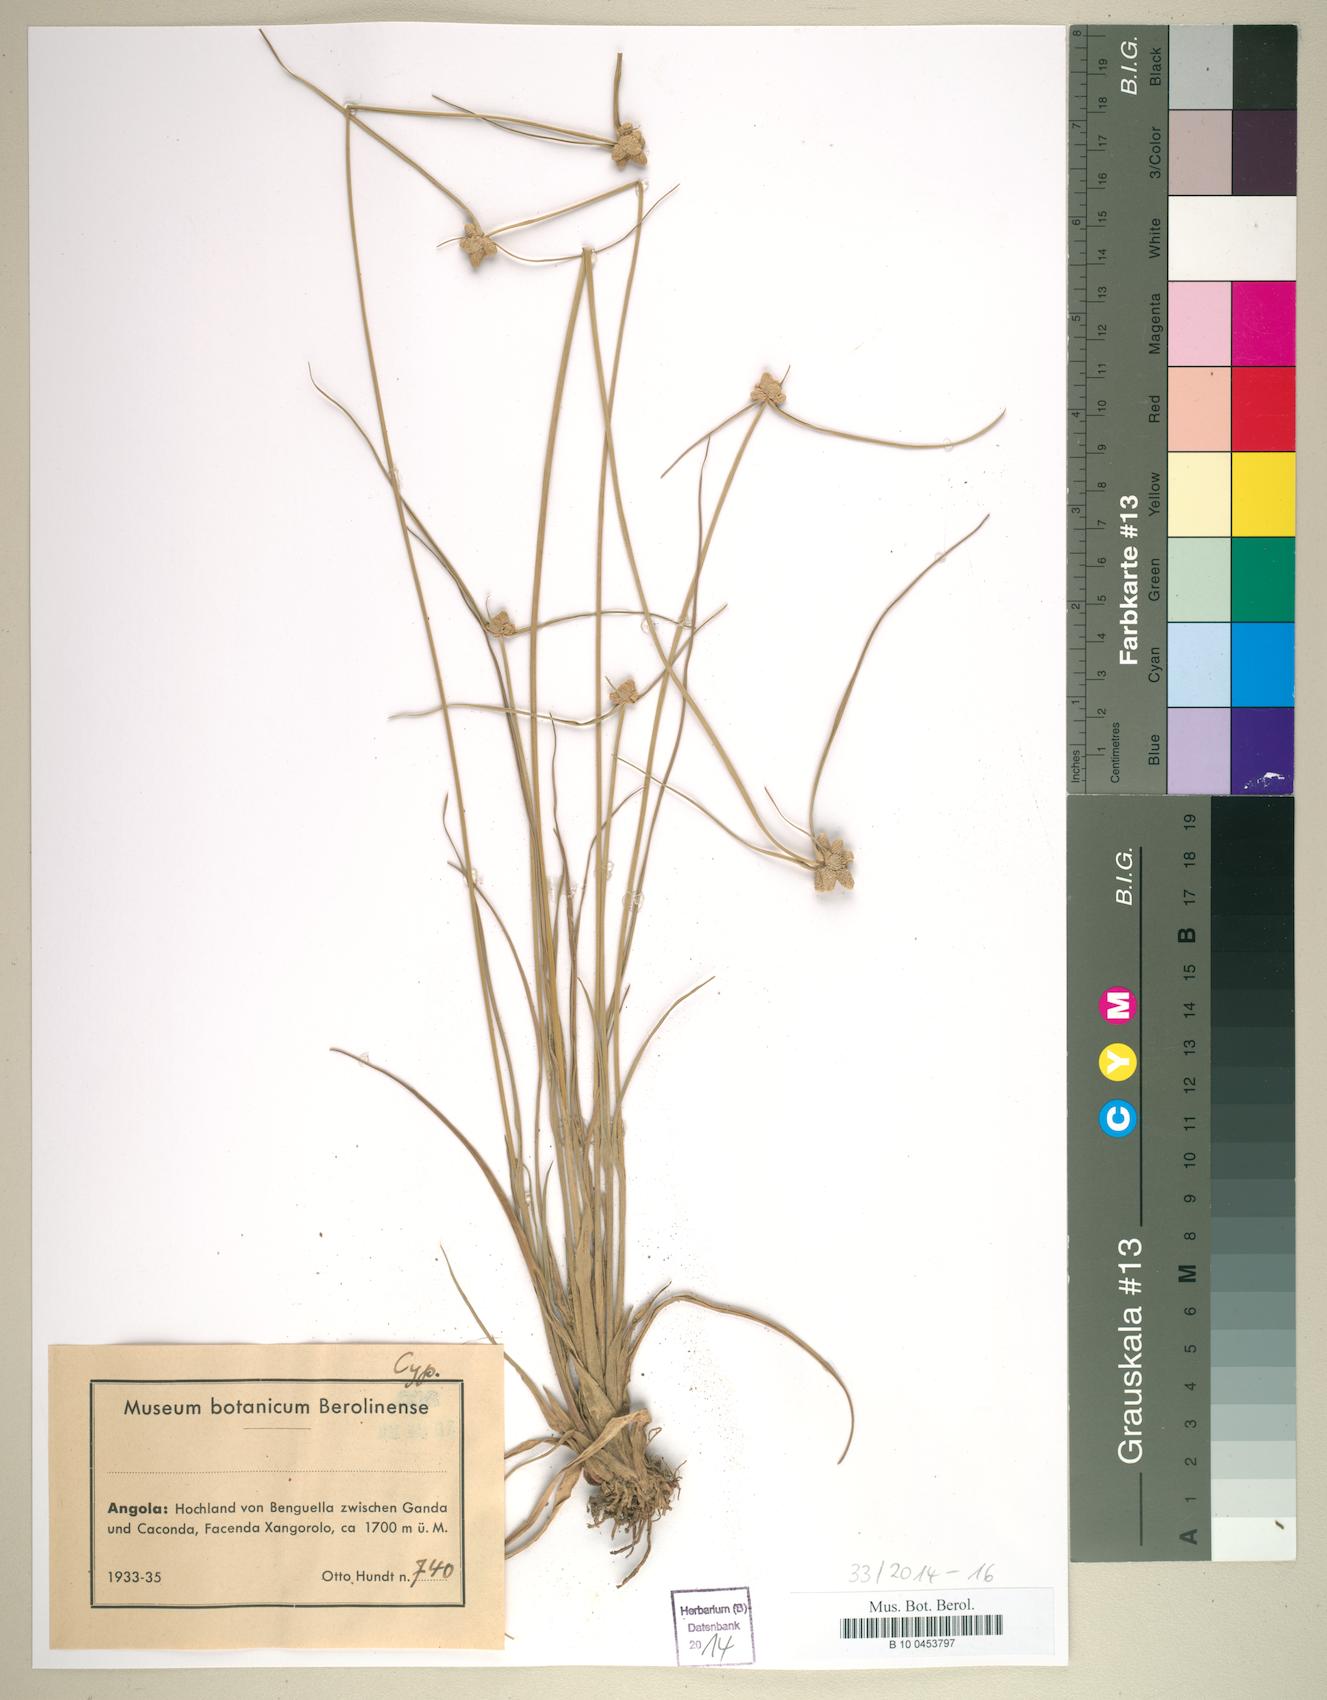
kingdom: Plantae
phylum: Tracheophyta
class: Liliopsida
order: Poales
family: Cyperaceae
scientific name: Cyperaceae
